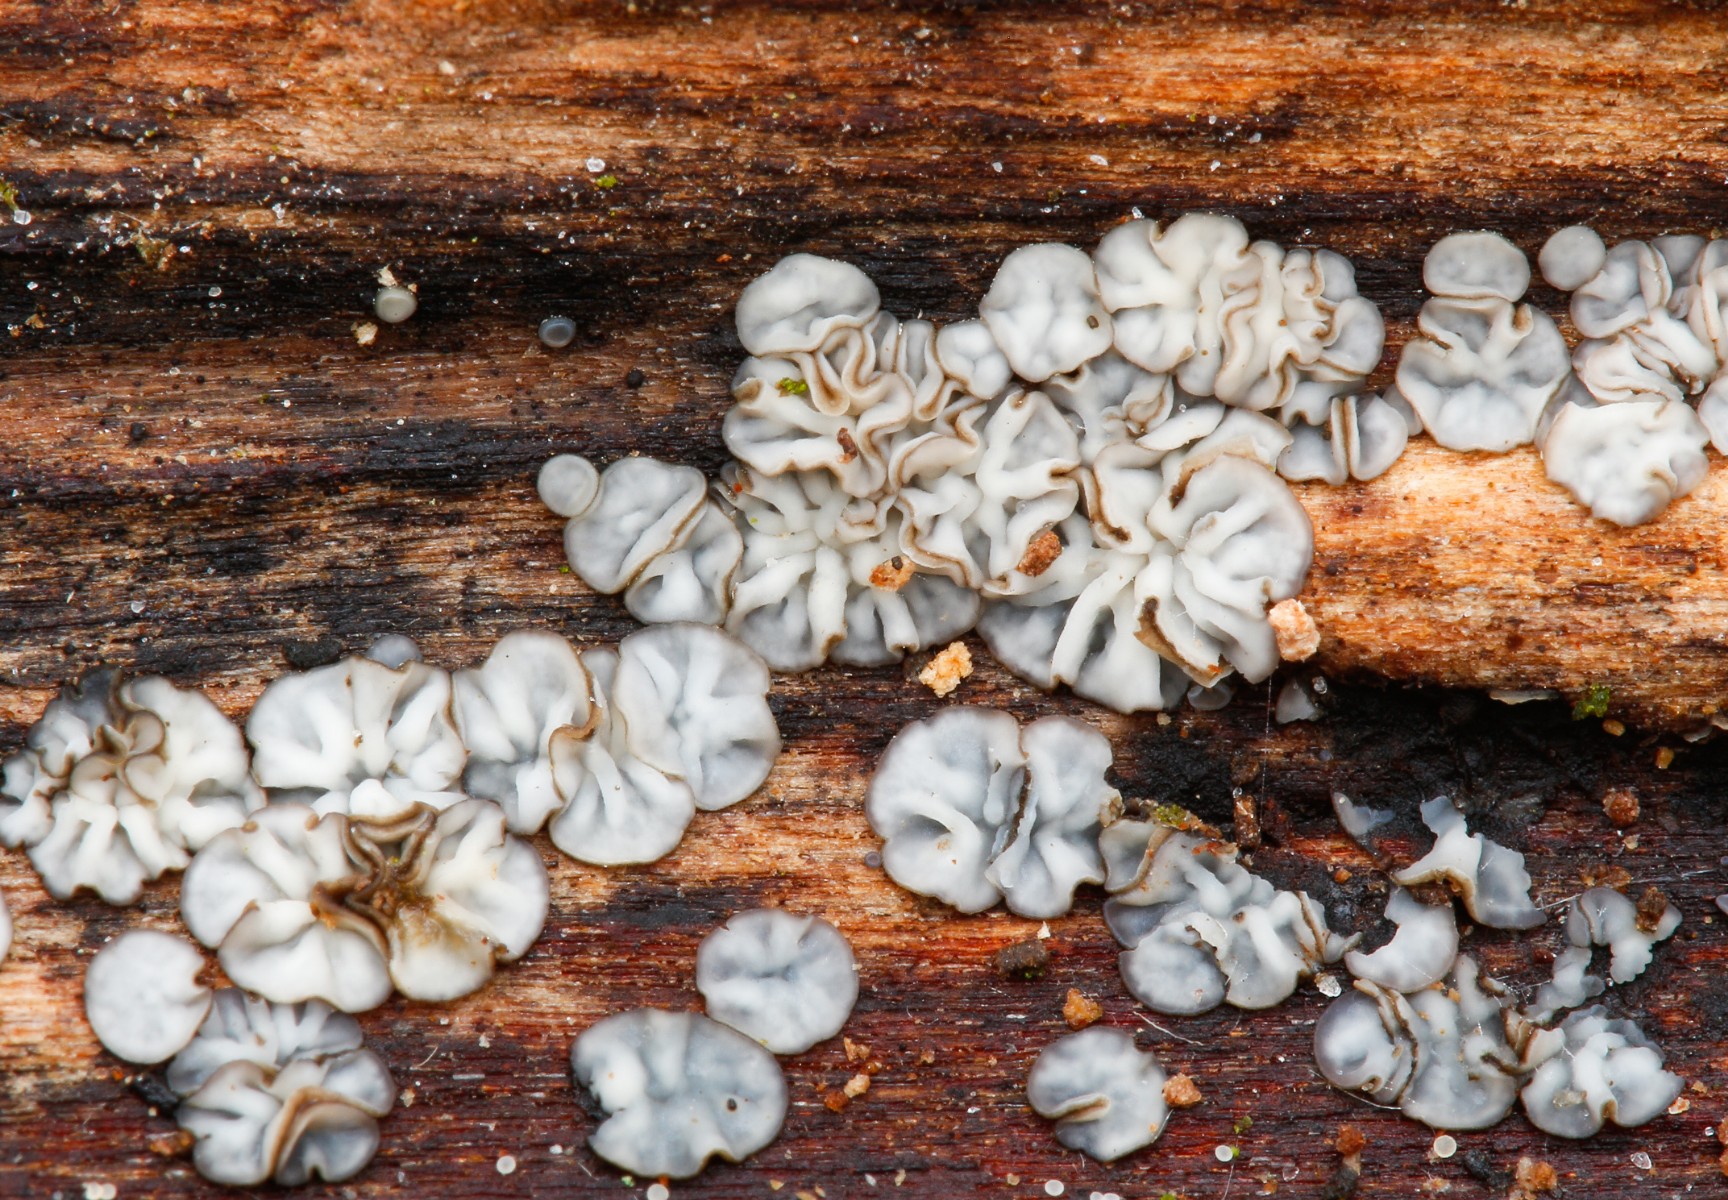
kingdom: Fungi
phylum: Ascomycota
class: Leotiomycetes
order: Helotiales
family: Mollisiaceae
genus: Mollisia
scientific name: Mollisia
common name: gråskive
